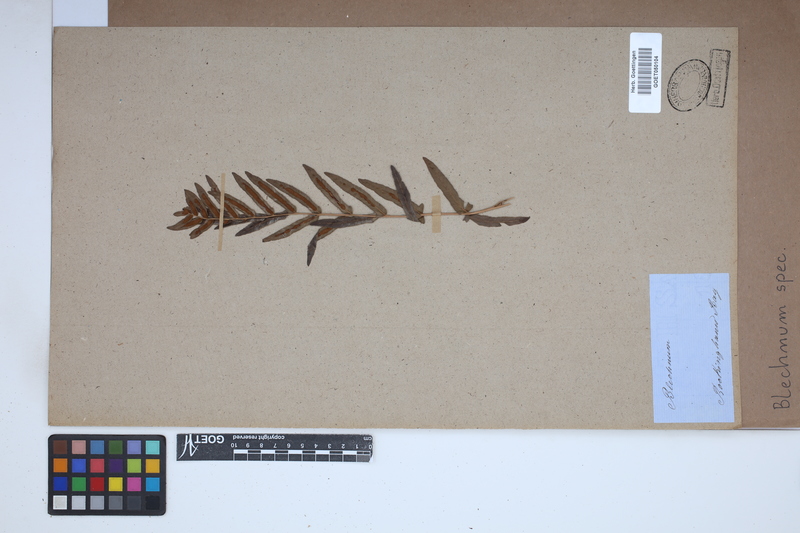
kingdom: Plantae
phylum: Tracheophyta
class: Polypodiopsida
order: Polypodiales
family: Blechnaceae
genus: Blechnum
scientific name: Blechnum
